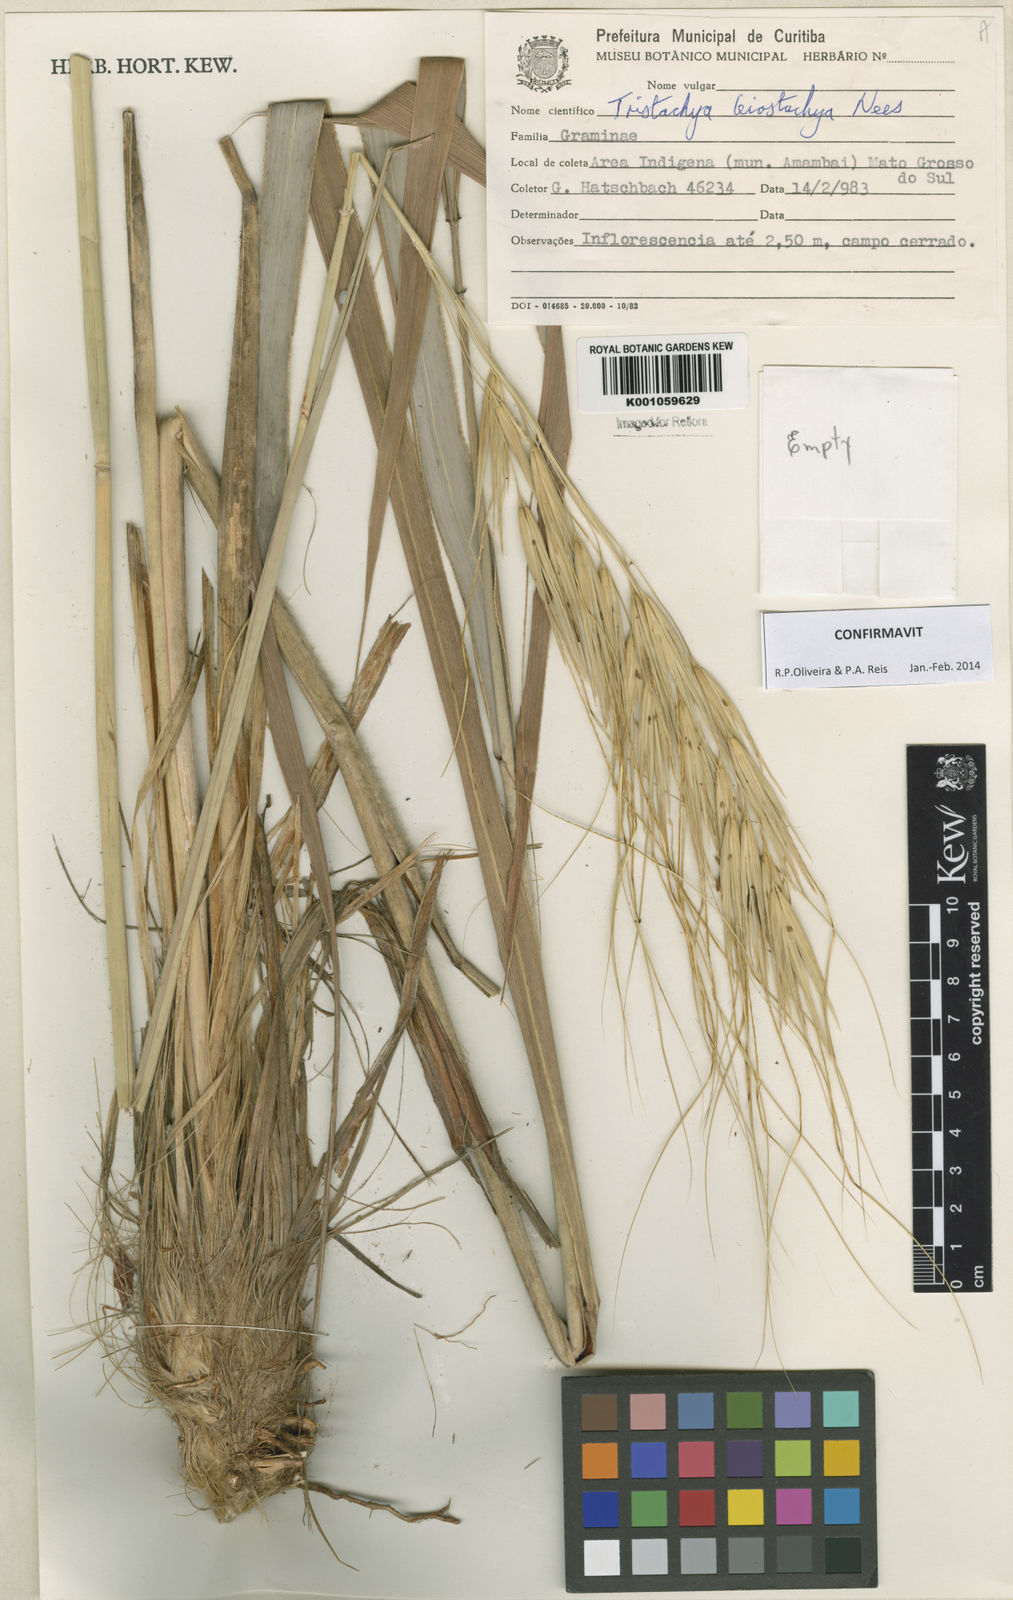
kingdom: Plantae
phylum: Tracheophyta
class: Liliopsida
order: Poales
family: Poaceae
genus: Tristachya
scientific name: Tristachya leiostachya
